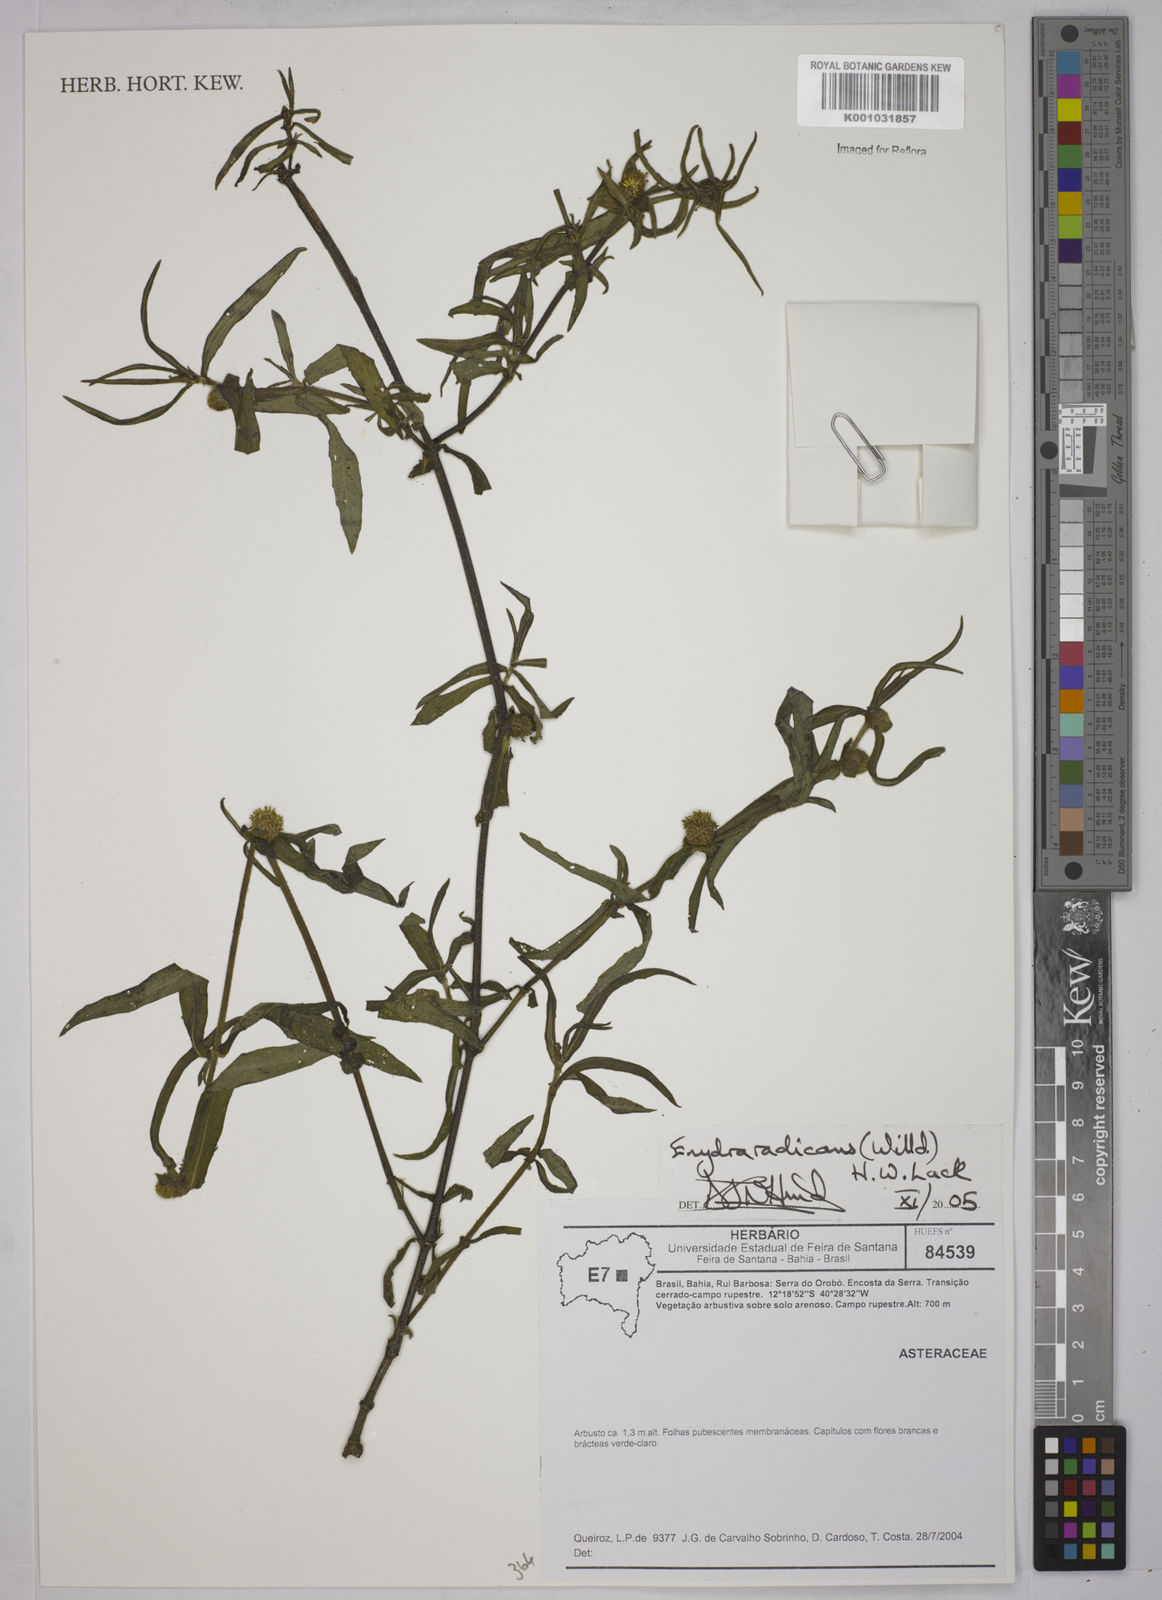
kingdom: Plantae
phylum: Tracheophyta
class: Magnoliopsida
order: Asterales
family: Asteraceae
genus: Enydra
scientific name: Enydra radicans
